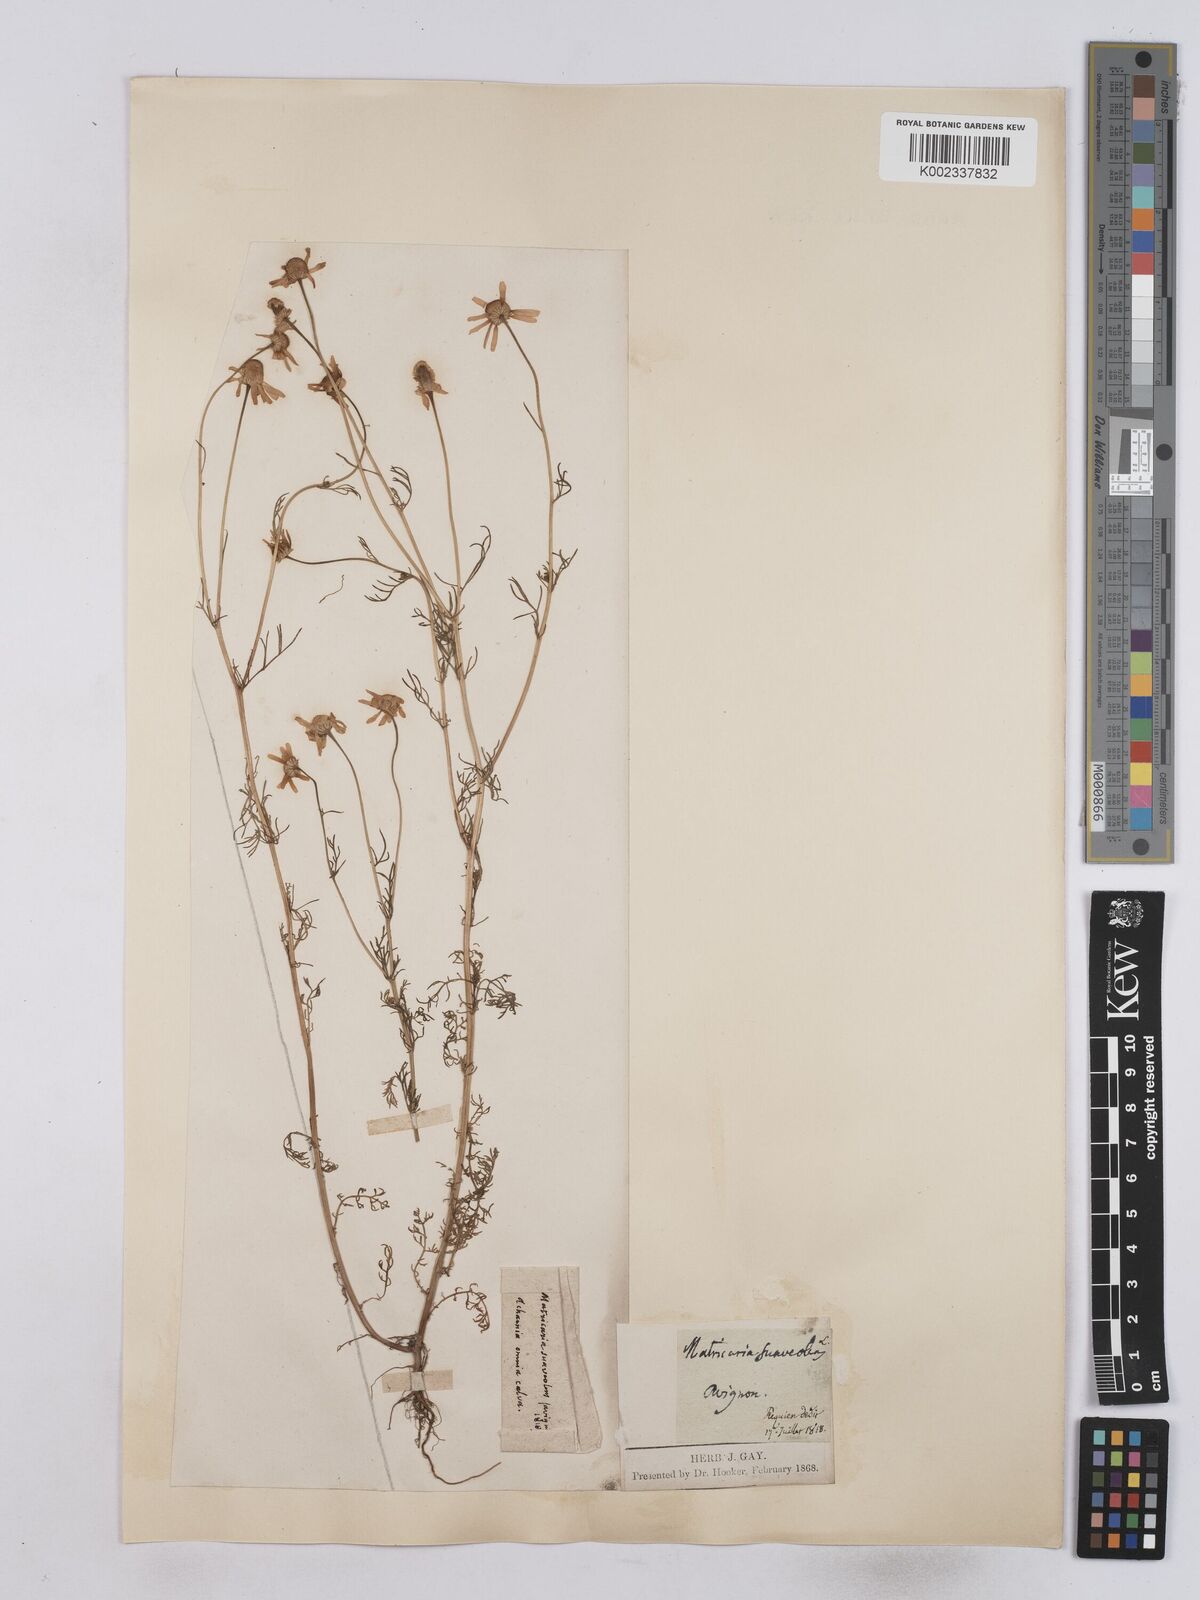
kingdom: Plantae
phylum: Tracheophyta
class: Magnoliopsida
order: Asterales
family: Asteraceae
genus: Matricaria
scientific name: Matricaria chamomilla
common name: Scented mayweed
